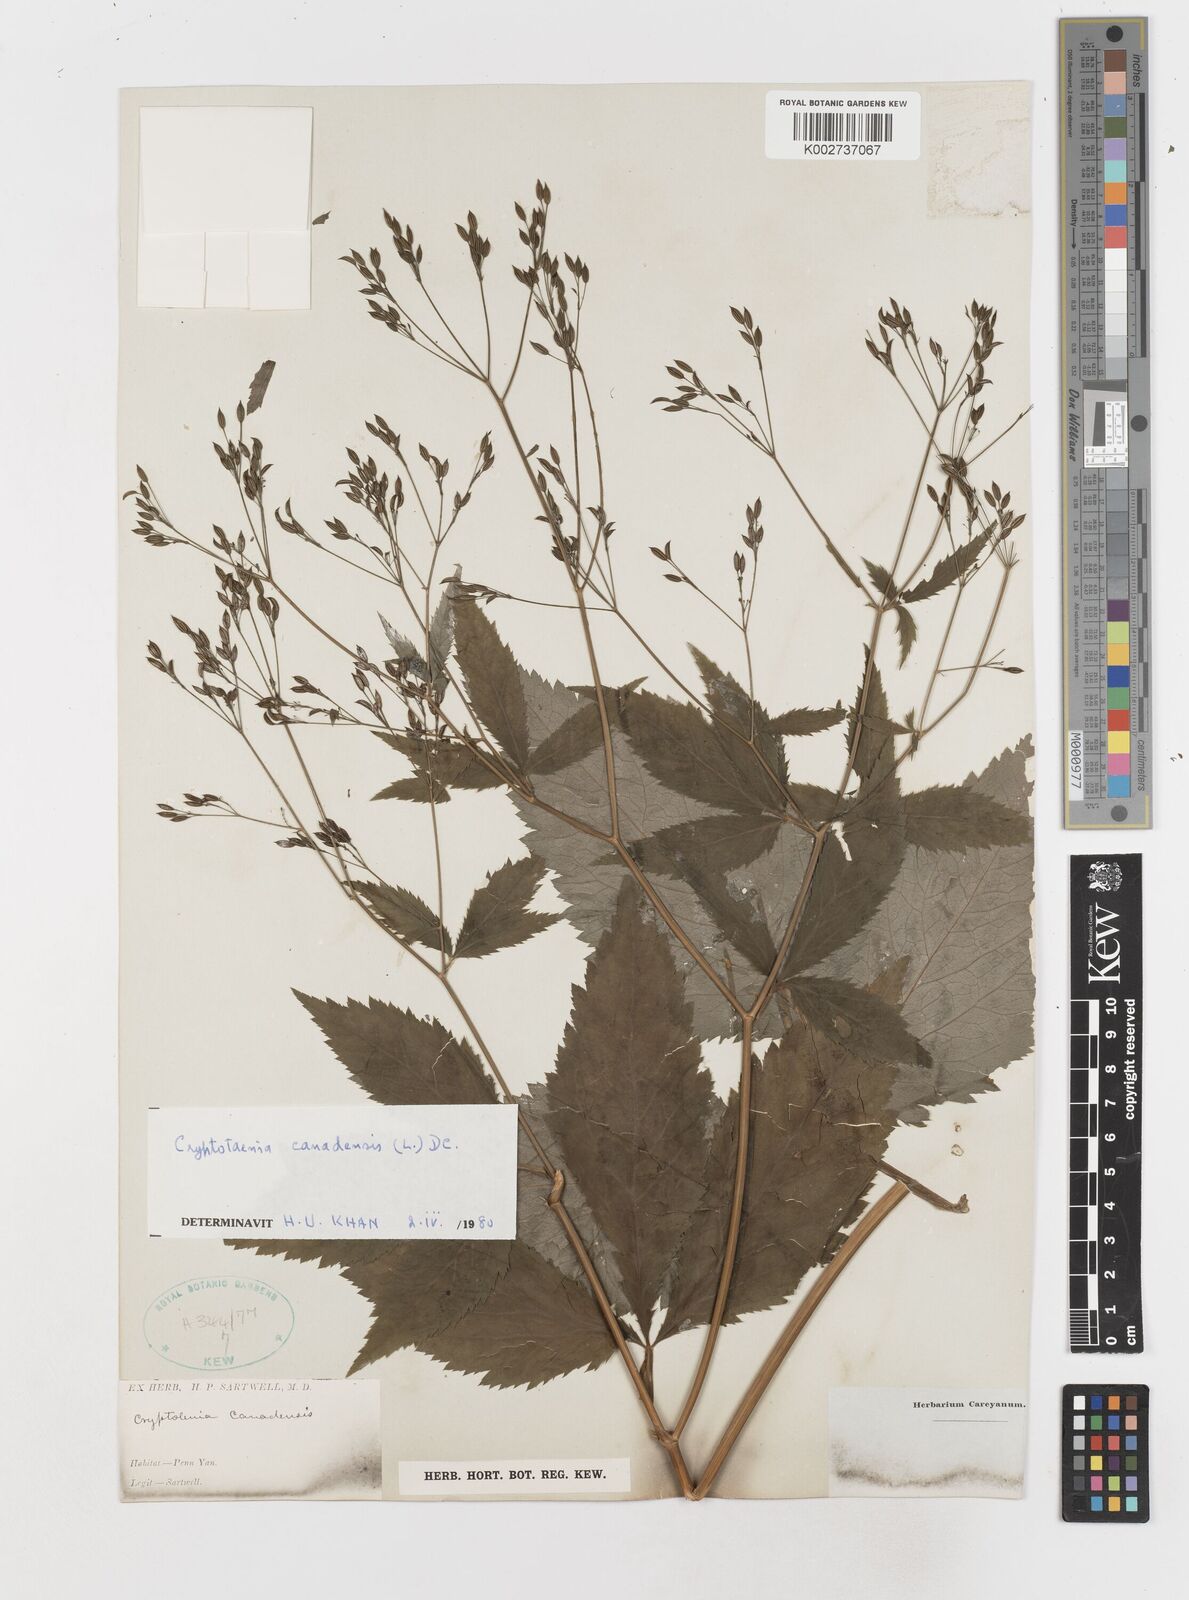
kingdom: Plantae
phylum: Tracheophyta
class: Magnoliopsida
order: Apiales
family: Apiaceae
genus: Cryptotaenia
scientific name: Cryptotaenia canadensis
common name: Honewort
